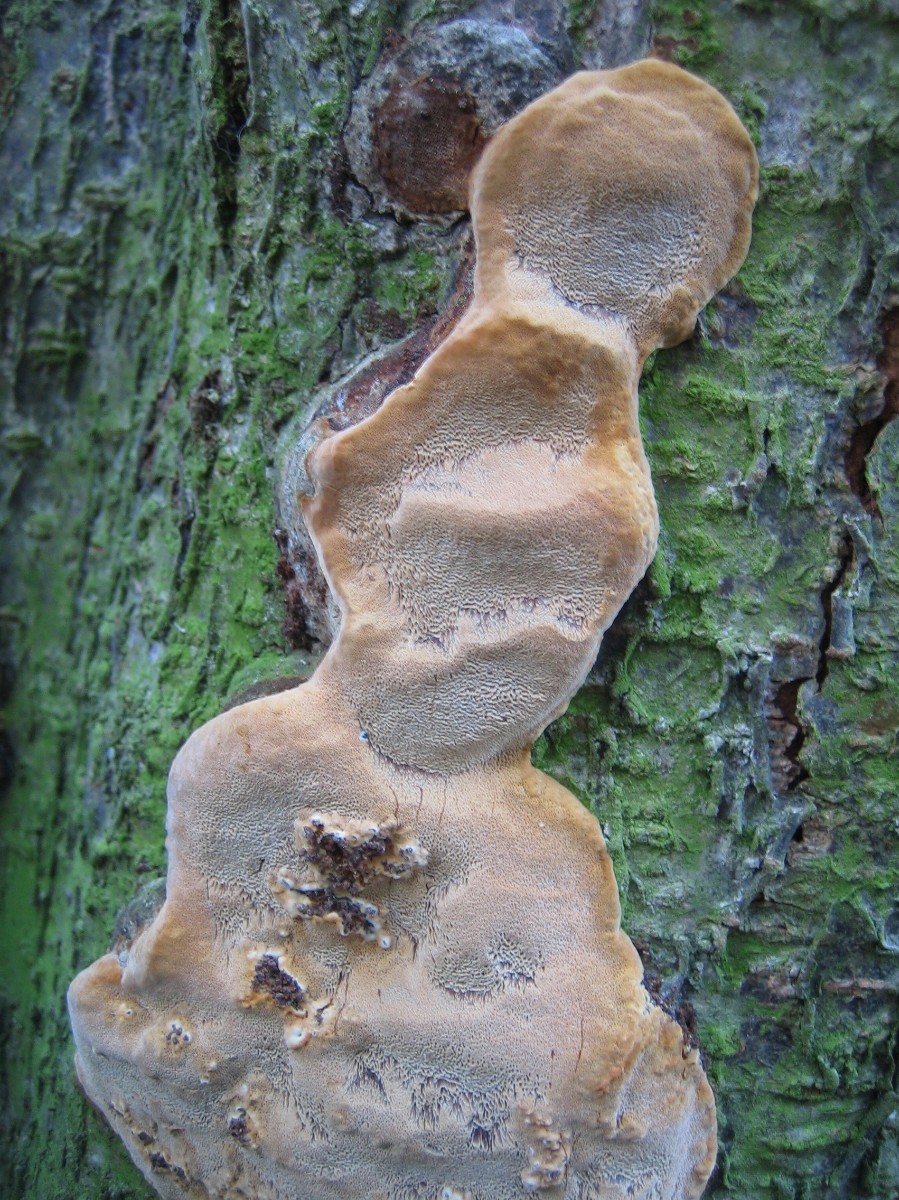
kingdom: Fungi
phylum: Basidiomycota
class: Agaricomycetes
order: Hymenochaetales
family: Hymenochaetaceae
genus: Phellinus
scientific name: Phellinus pomaceus
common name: blomme-ildporesvamp
